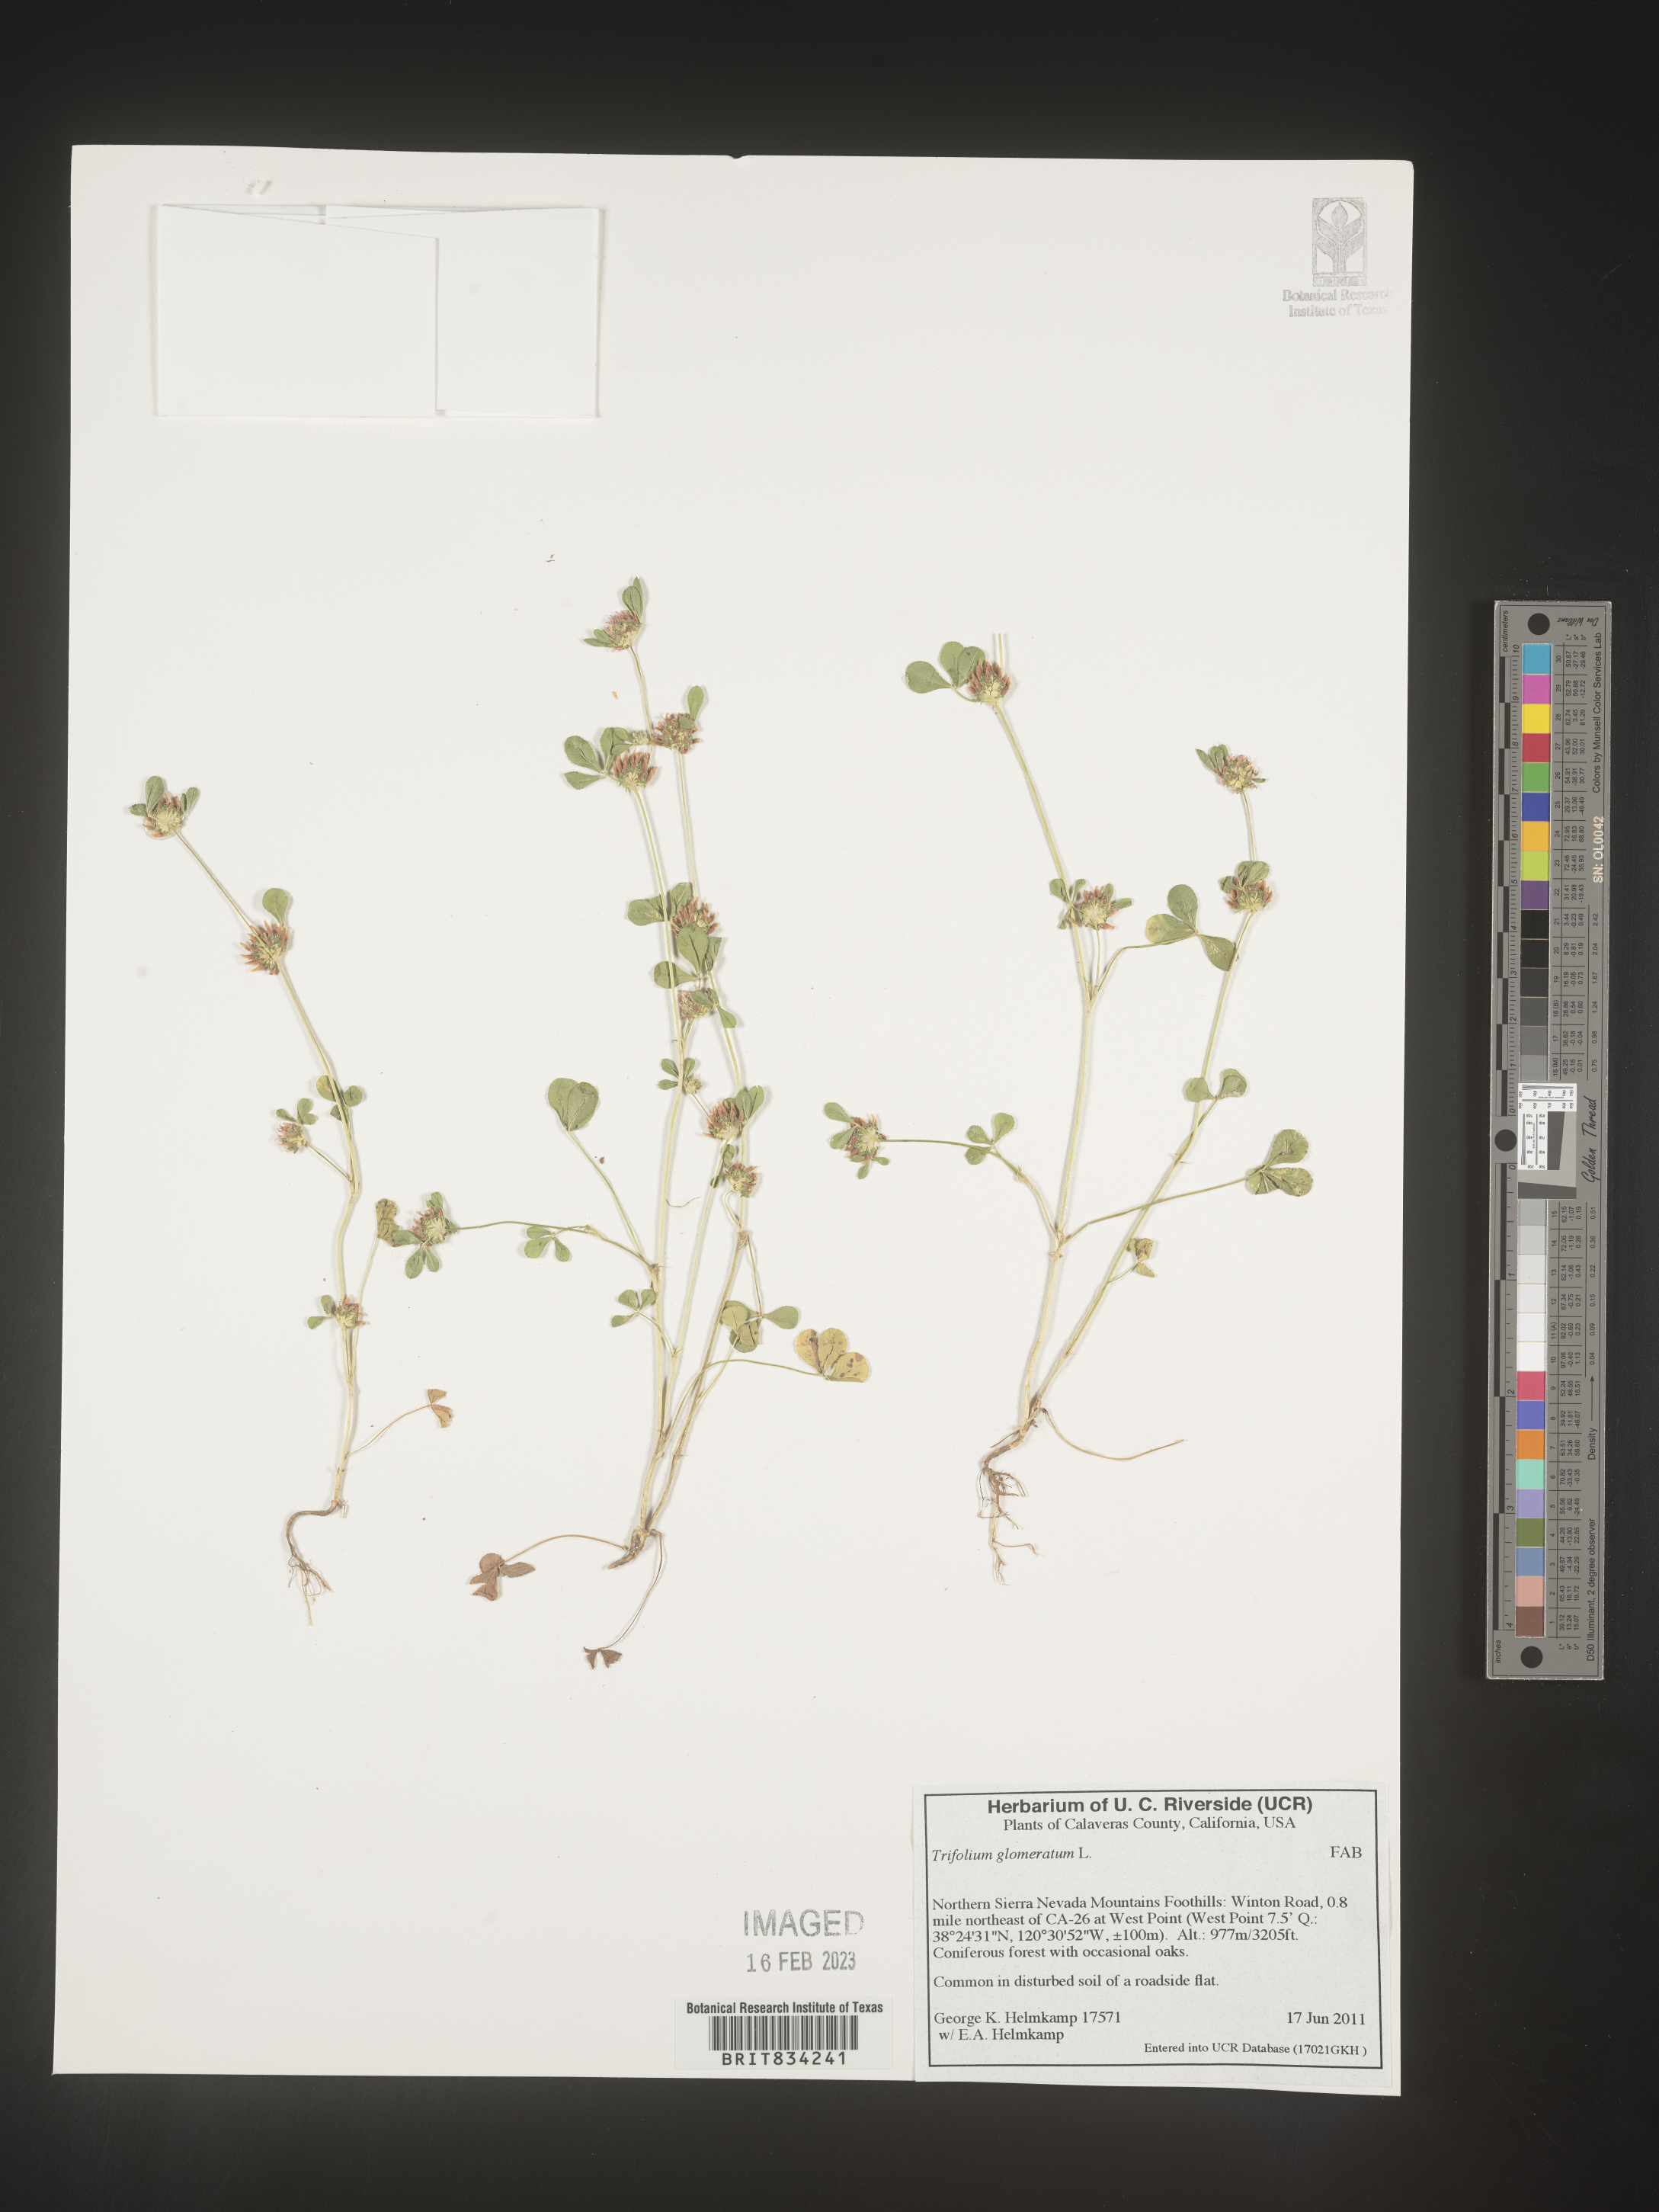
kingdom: Plantae
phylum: Tracheophyta
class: Magnoliopsida
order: Fabales
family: Fabaceae
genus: Trifolium
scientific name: Trifolium
